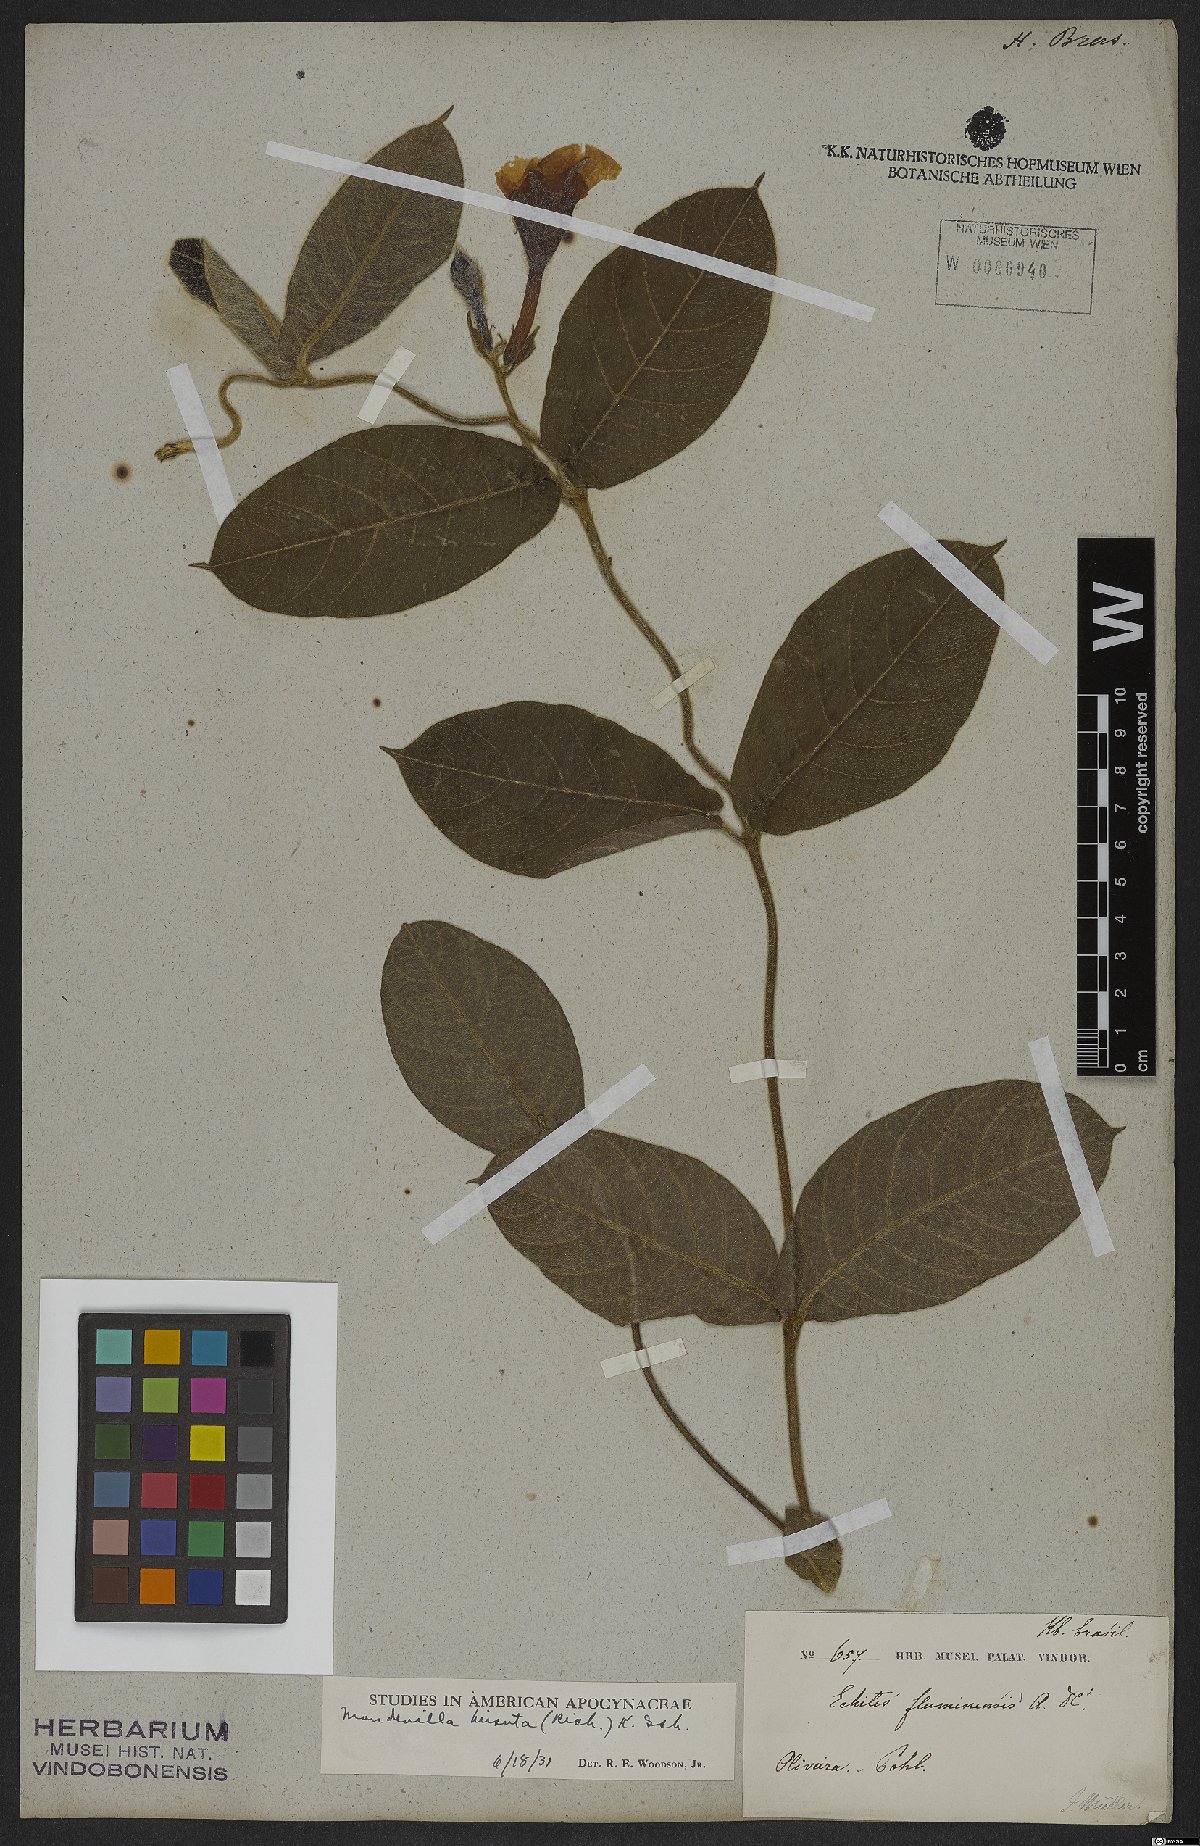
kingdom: Plantae
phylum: Tracheophyta
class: Magnoliopsida
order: Gentianales
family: Apocynaceae
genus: Mandevilla
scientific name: Mandevilla hirsuta
